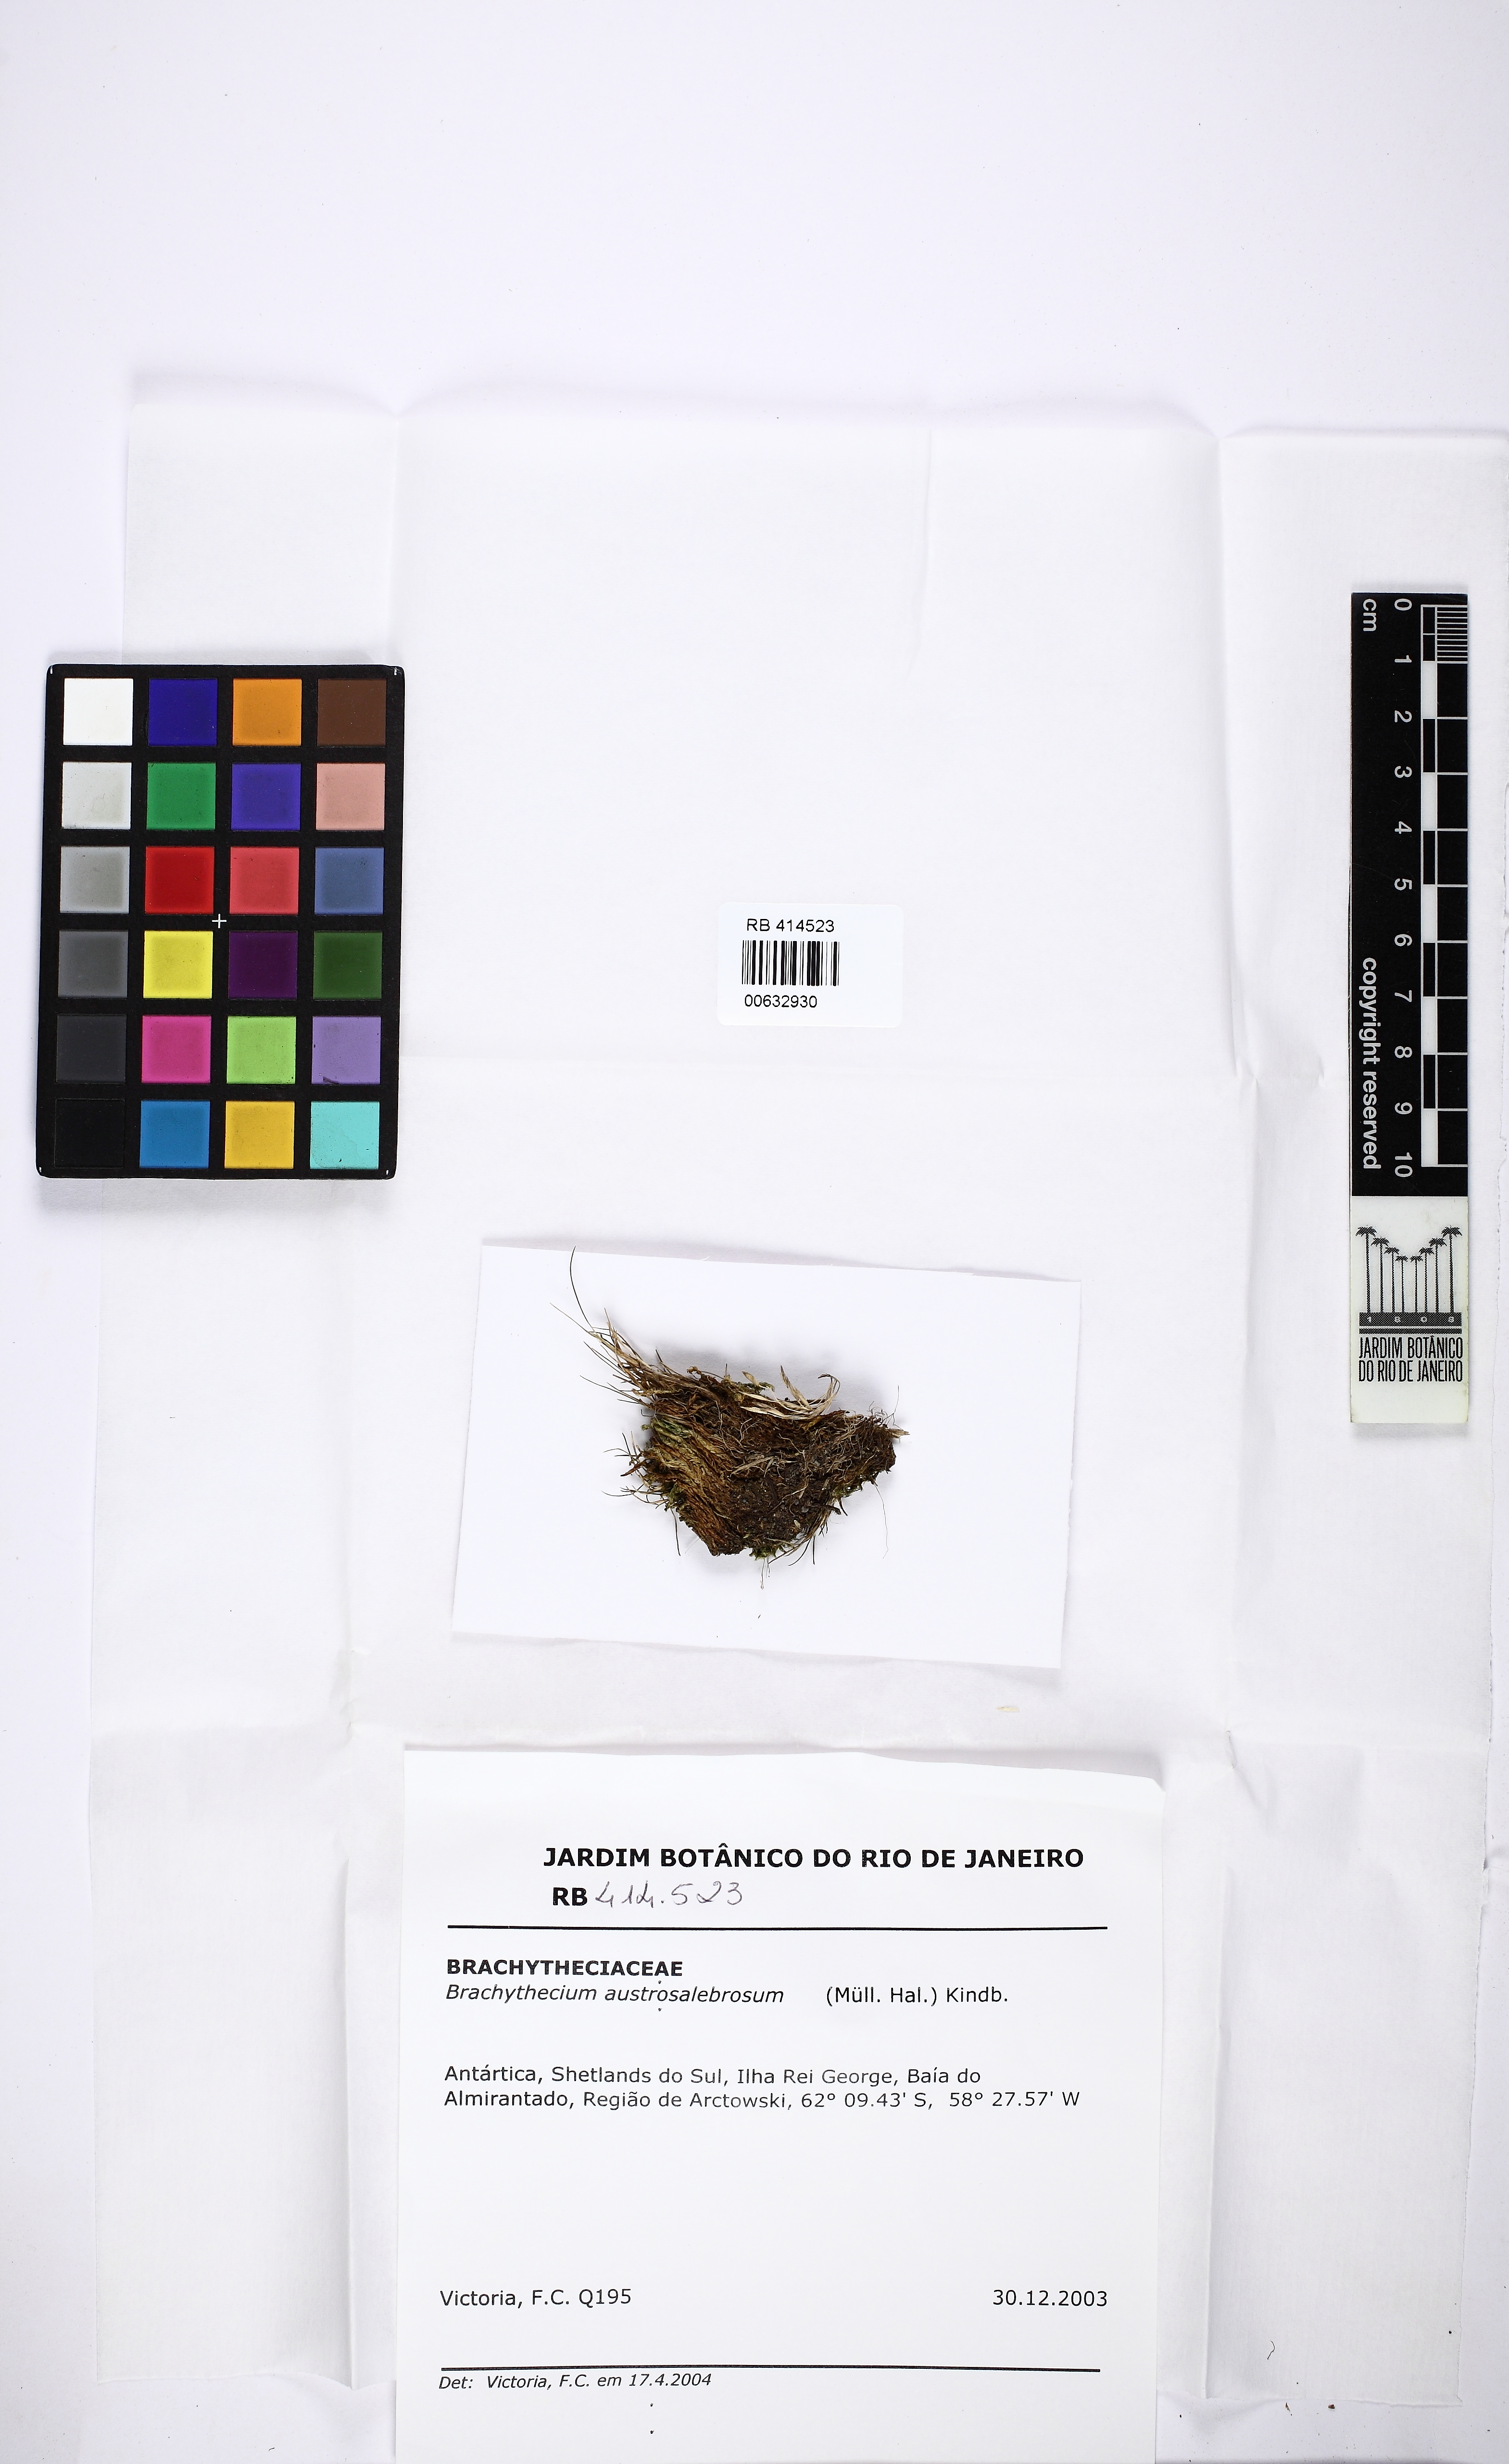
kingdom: Plantae
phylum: Bryophyta
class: Bryopsida
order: Hypnales
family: Brachytheciaceae
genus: Brachythecium
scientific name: Brachythecium austrosalebrosum
